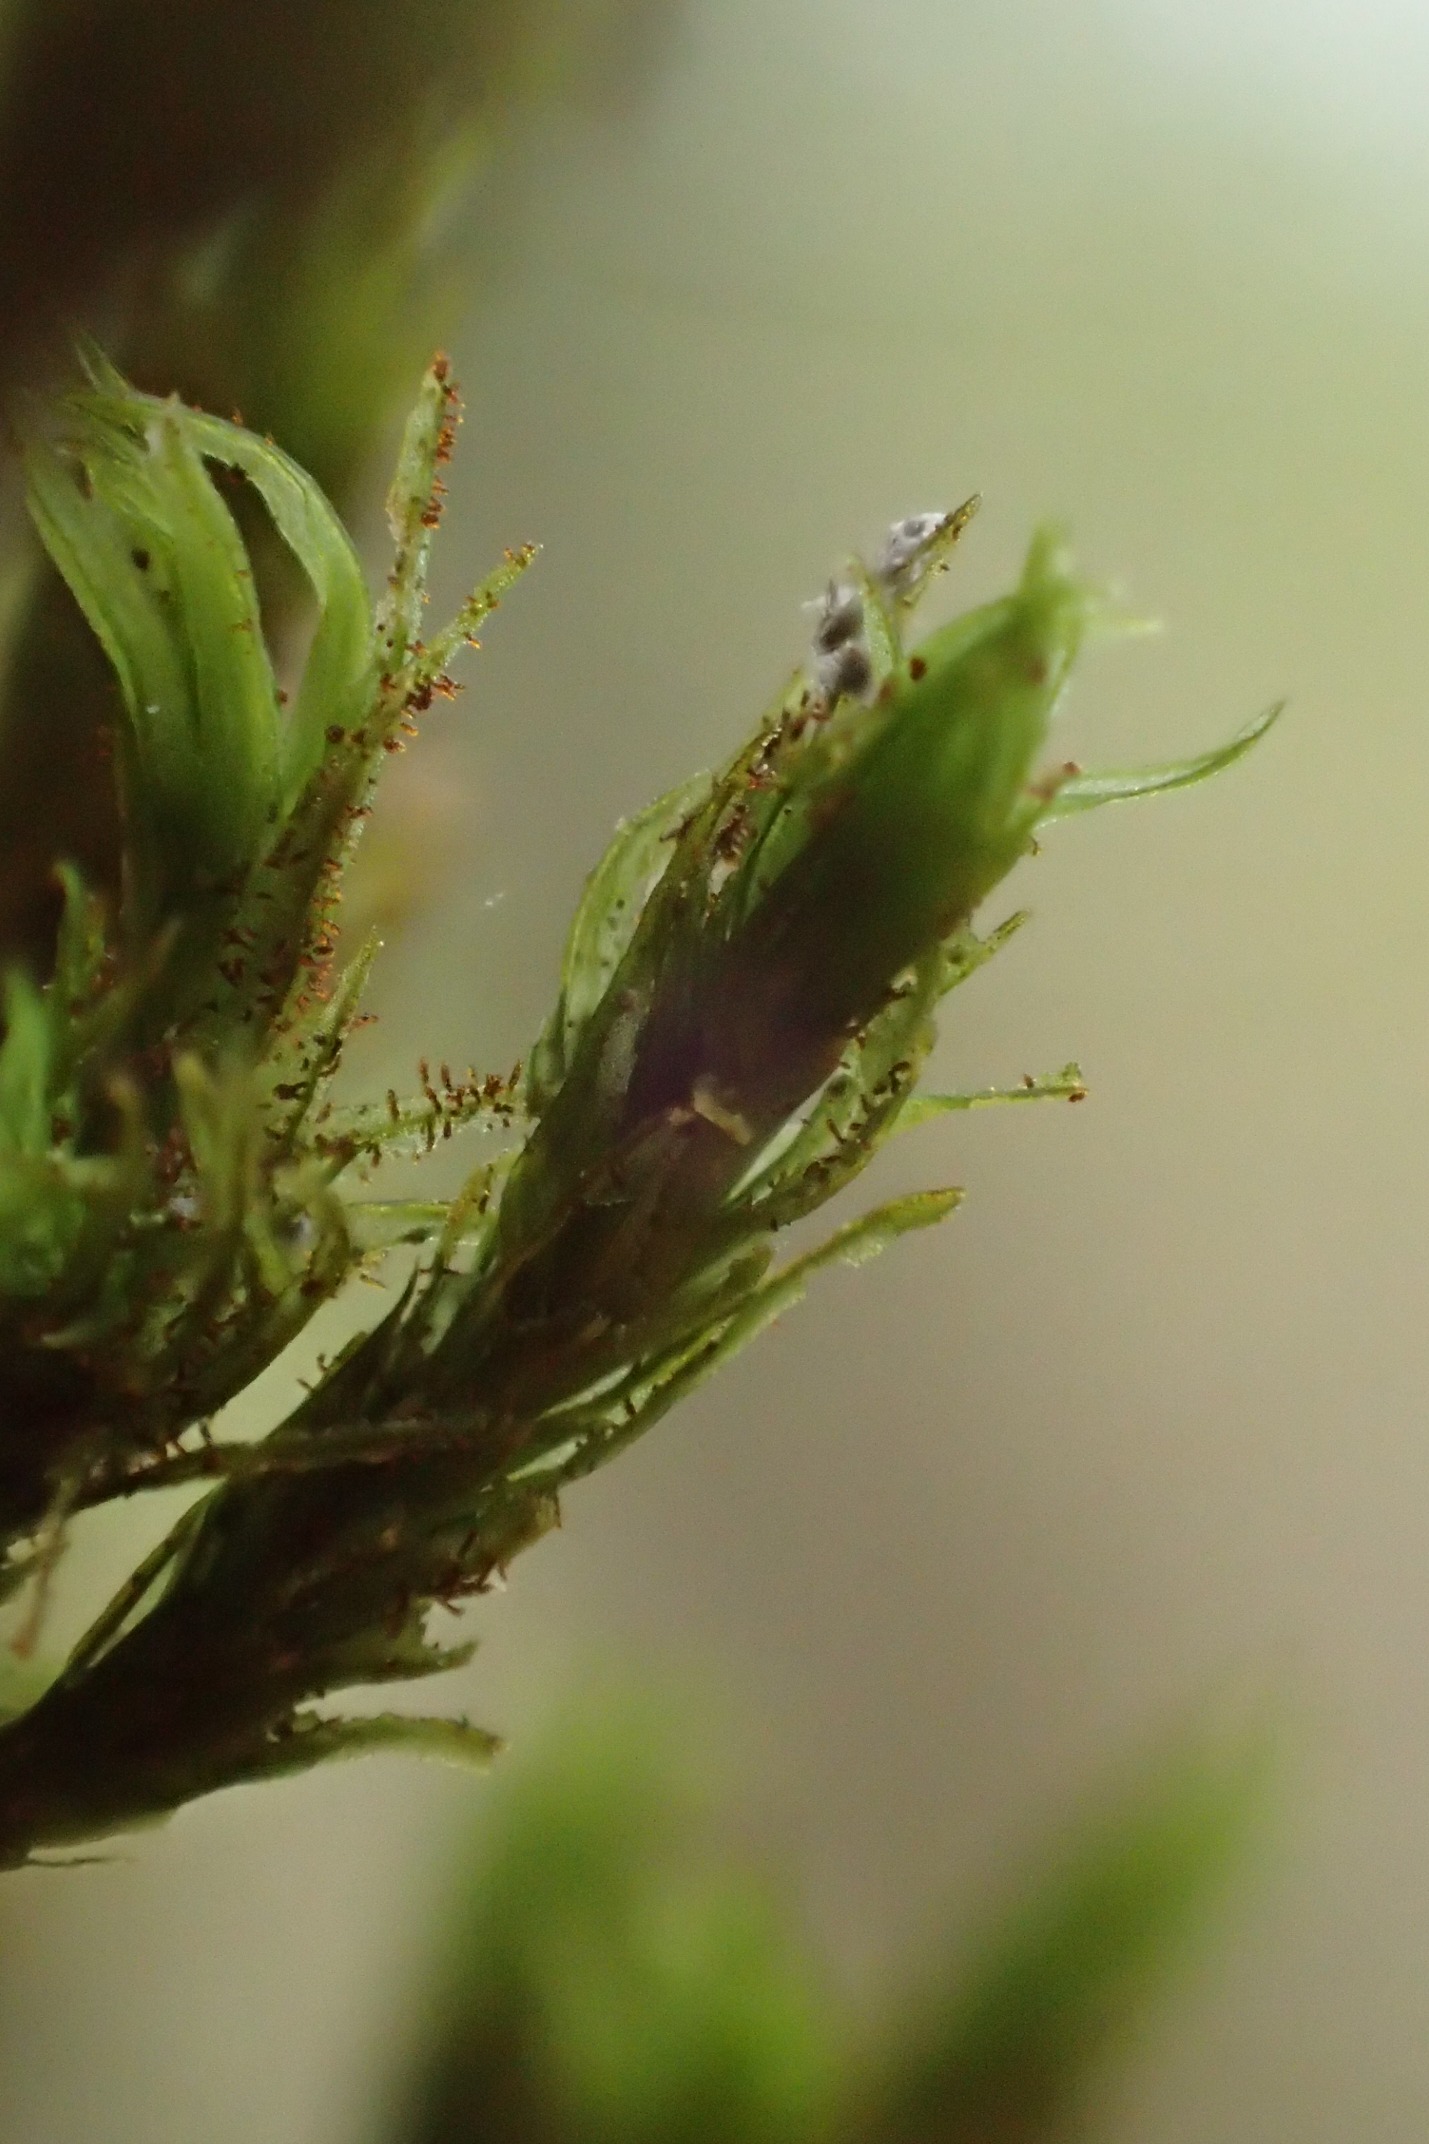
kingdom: Plantae
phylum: Bryophyta
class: Bryopsida
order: Orthotrichales
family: Orthotrichaceae
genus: Pulvigera
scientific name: Pulvigera lyellii
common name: Stor furehætte
